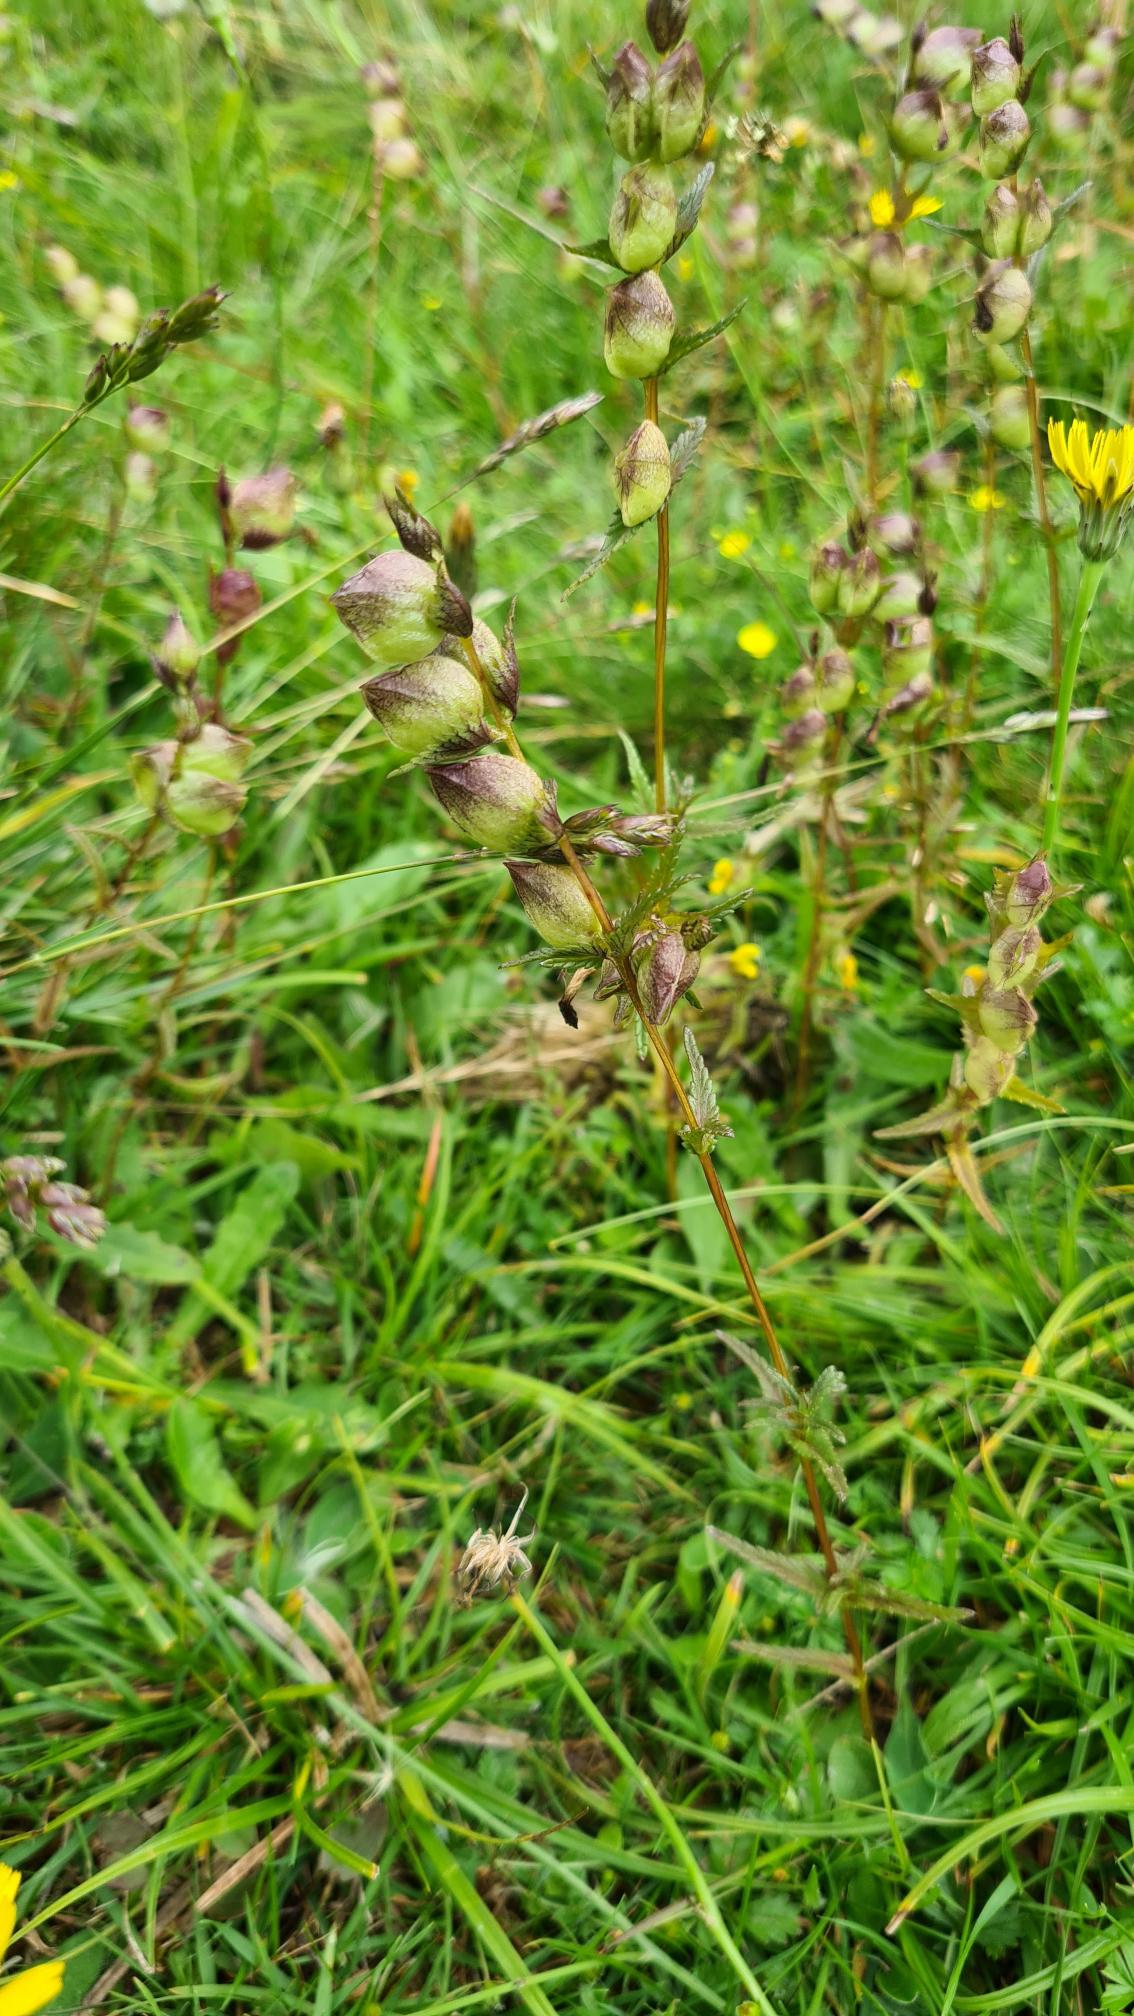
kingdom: Plantae
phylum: Tracheophyta
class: Magnoliopsida
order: Lamiales
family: Orobanchaceae
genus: Rhinanthus
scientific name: Rhinanthus minor
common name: Liden skjaller
